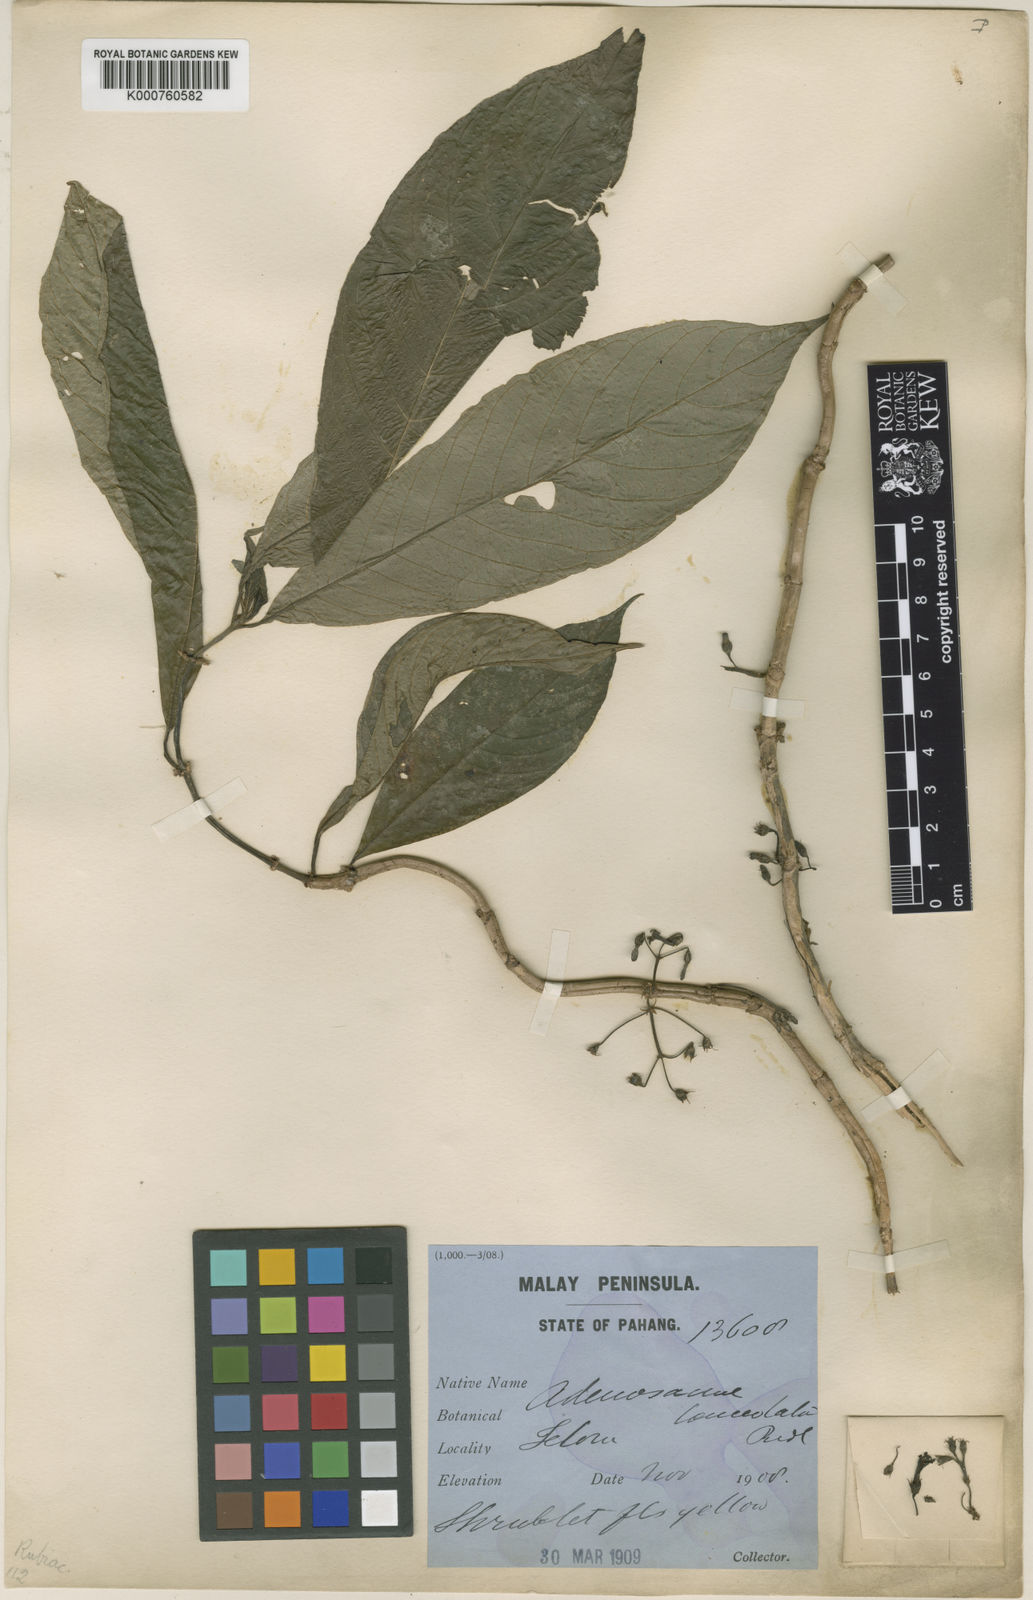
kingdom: Plantae
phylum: Tracheophyta
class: Magnoliopsida
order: Gentianales
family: Rubiaceae
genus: Mycetia
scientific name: Mycetia fasciculata
